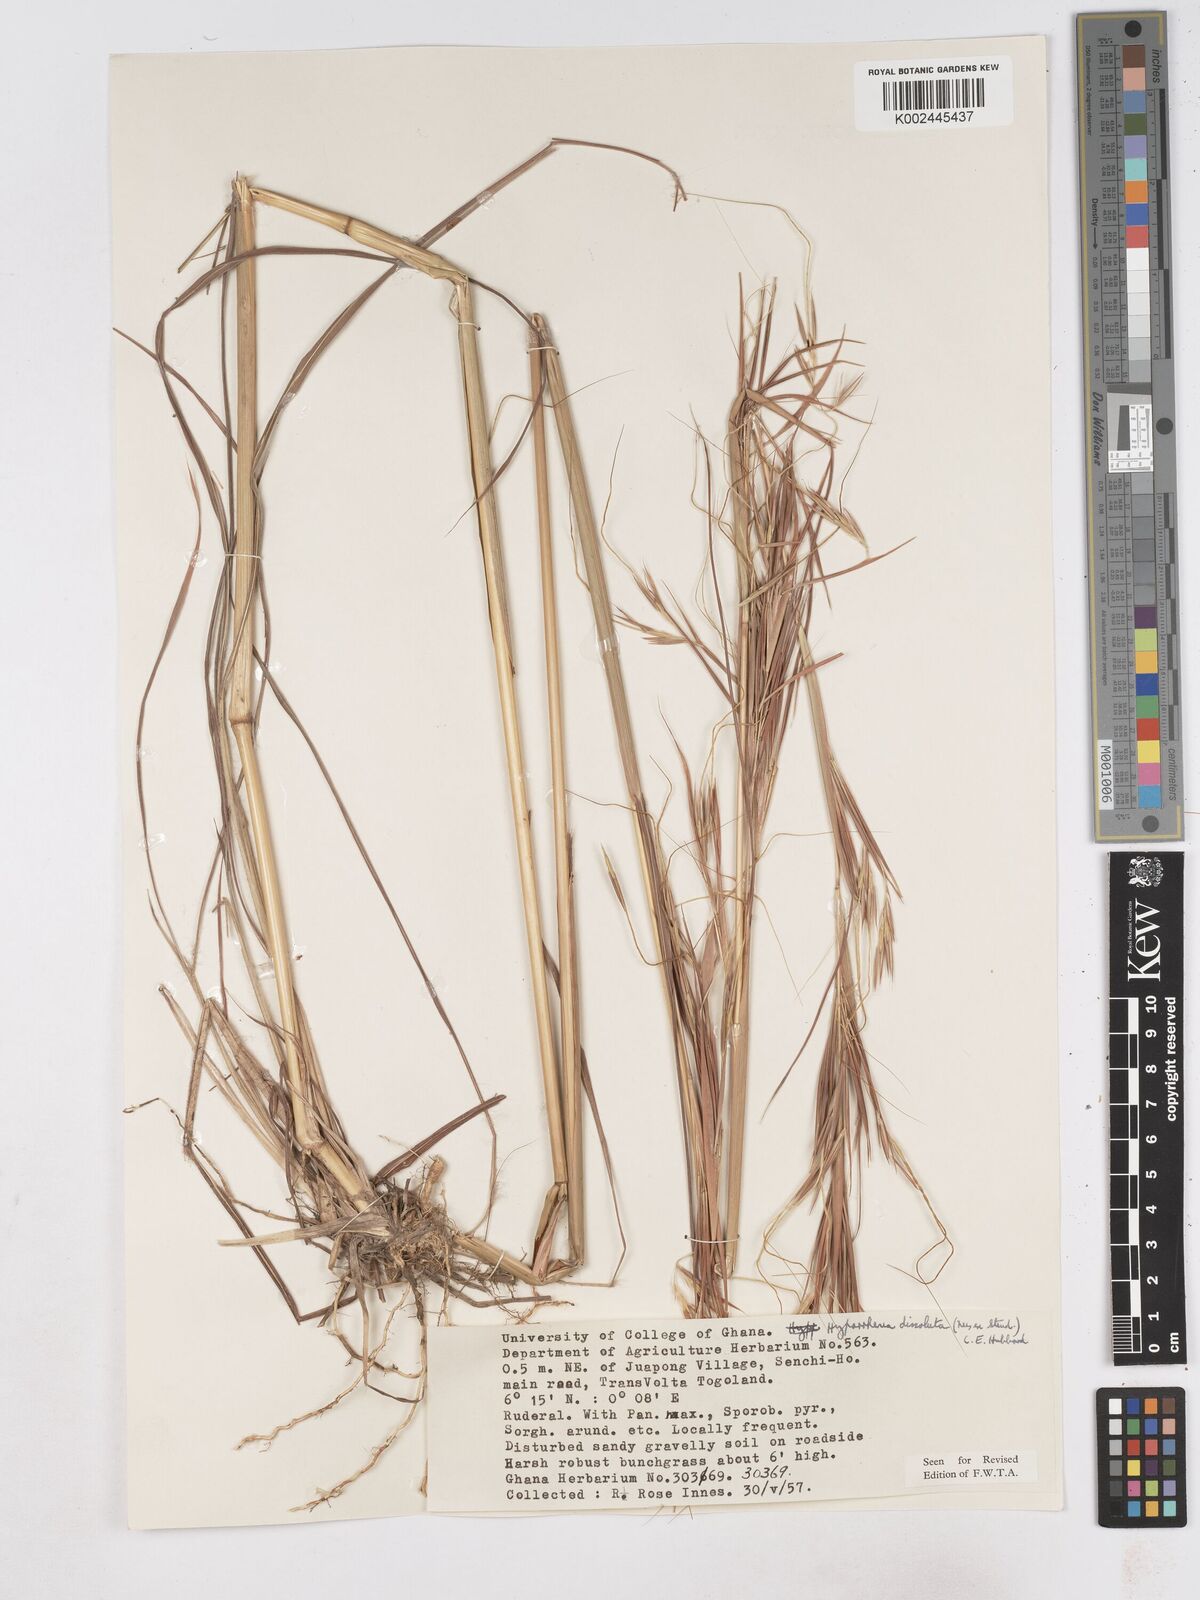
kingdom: Plantae
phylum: Tracheophyta
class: Liliopsida
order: Poales
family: Poaceae
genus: Hyperthelia
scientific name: Hyperthelia dissoluta
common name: Yellow thatching grass
